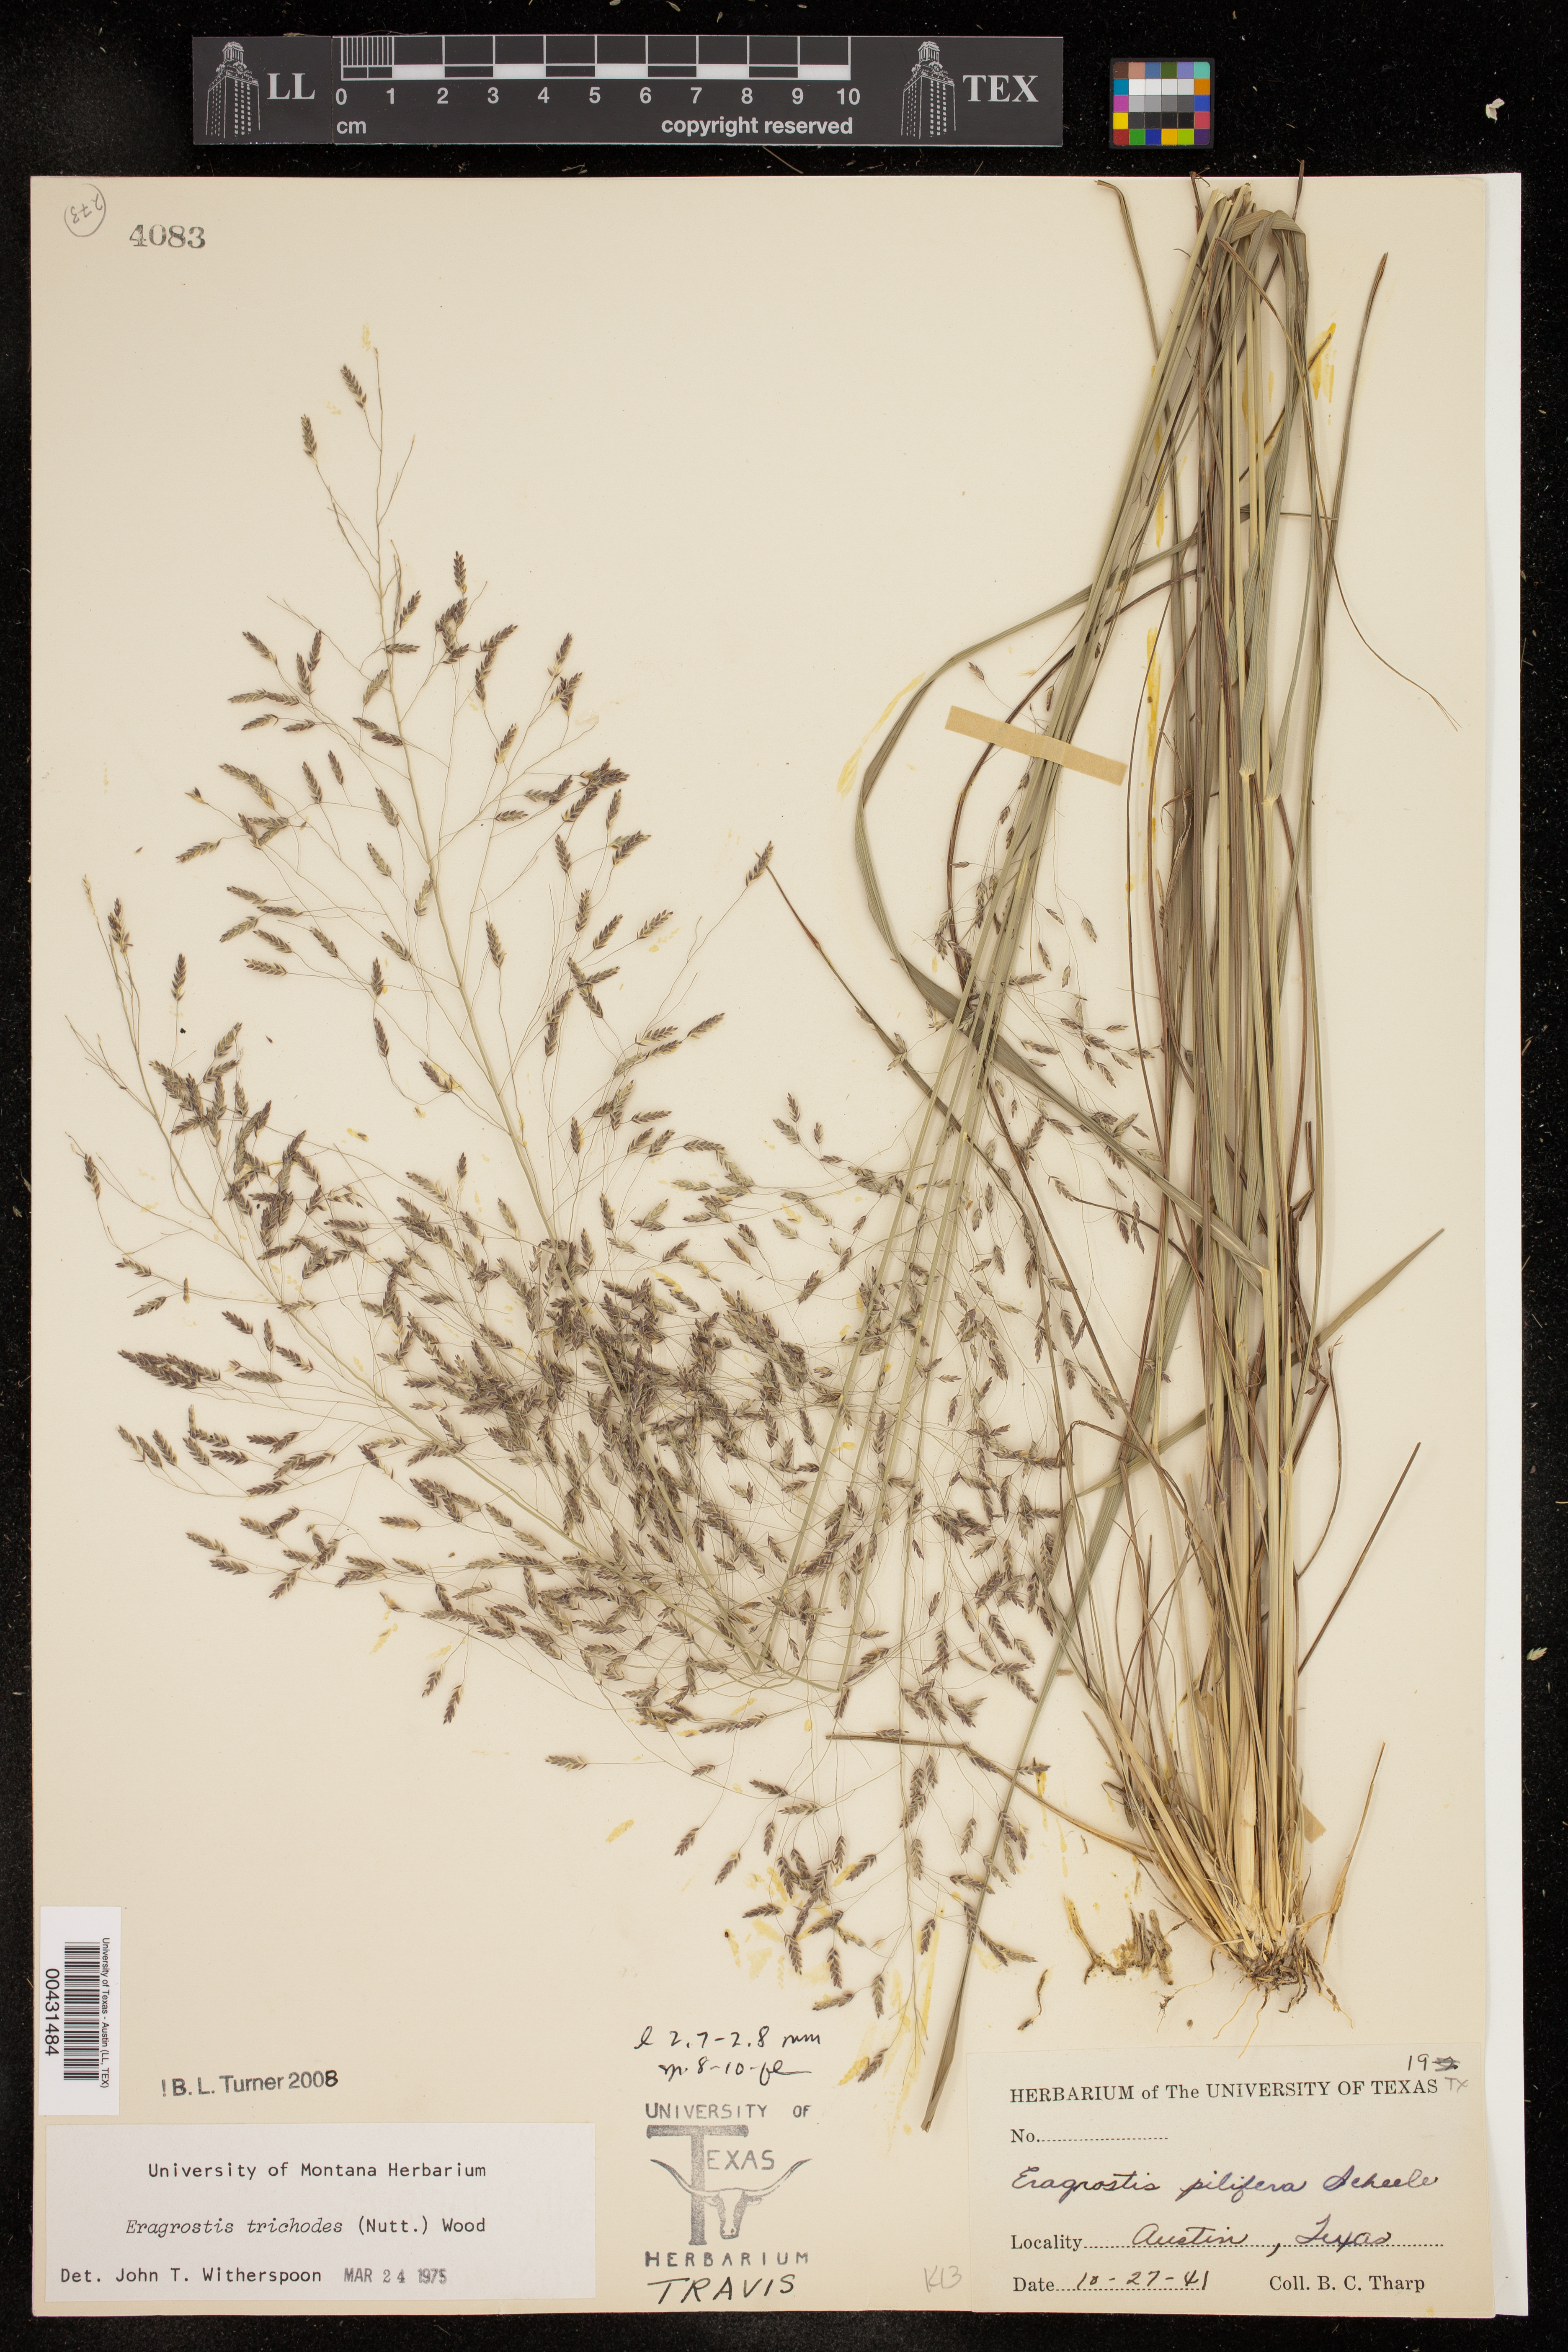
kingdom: Plantae
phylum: Tracheophyta
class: Liliopsida
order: Poales
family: Poaceae
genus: Eragrostis
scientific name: Eragrostis trichodes
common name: Sand love grass
